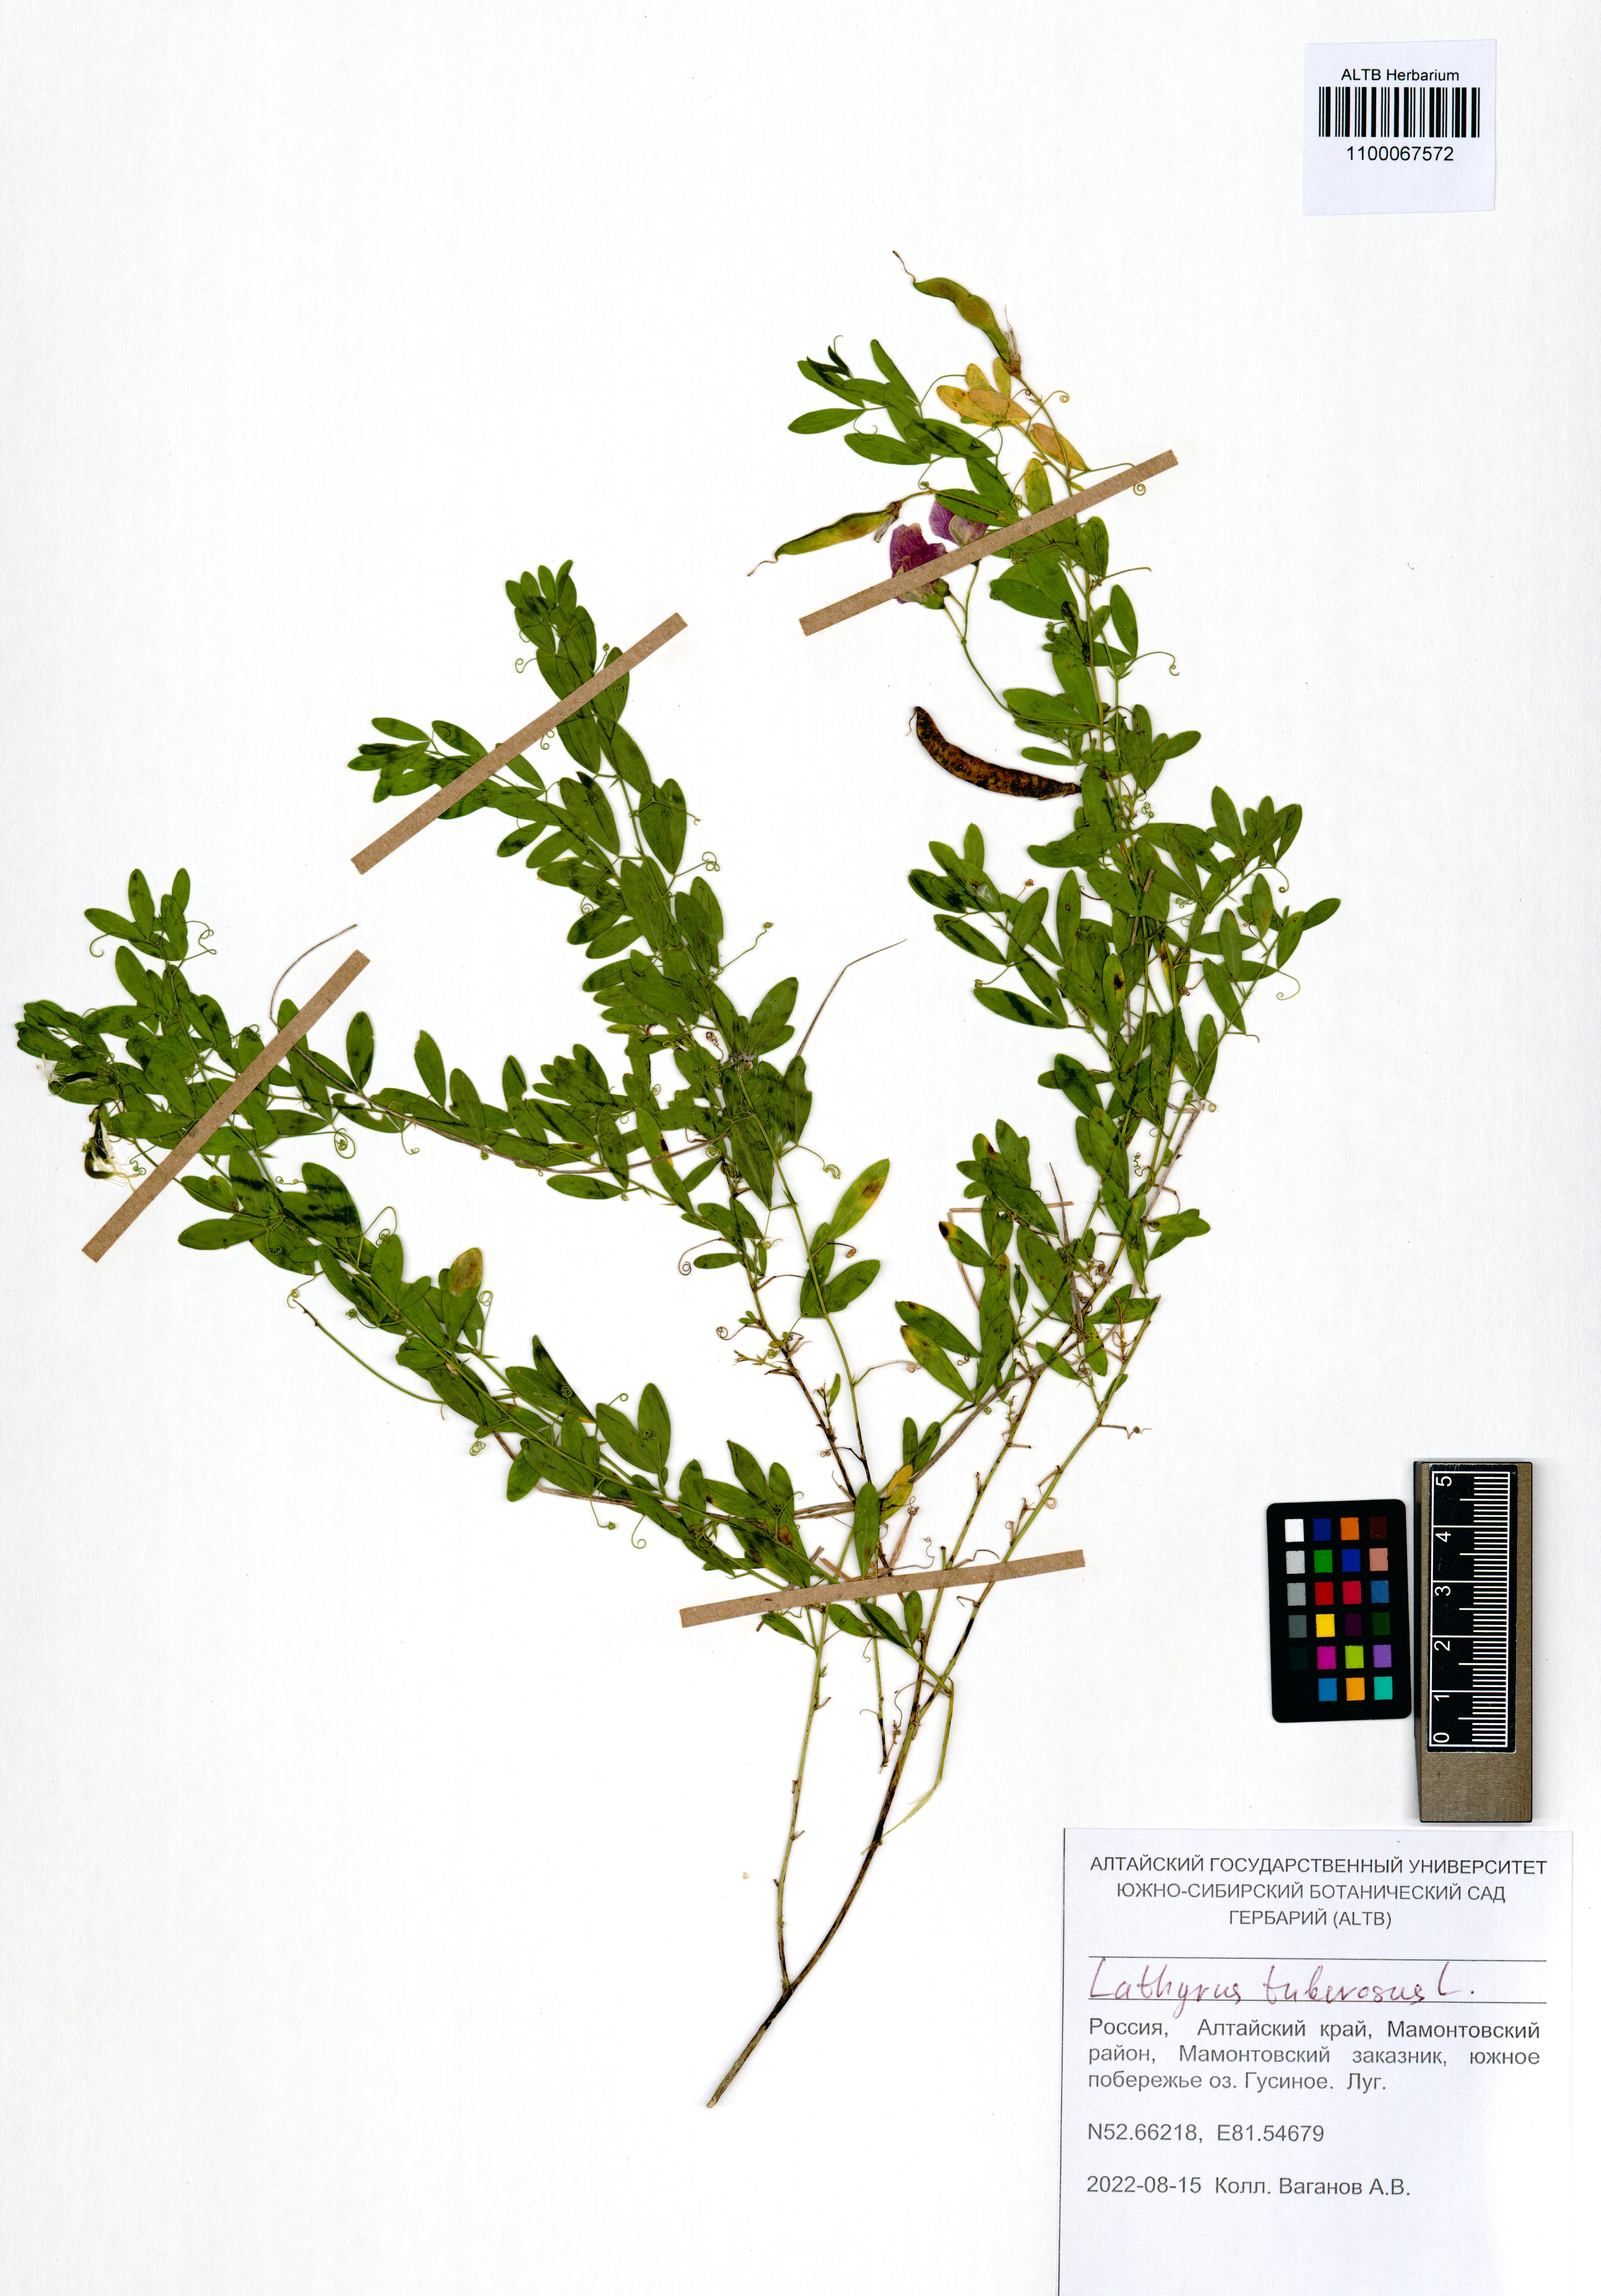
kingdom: Plantae
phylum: Tracheophyta
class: Magnoliopsida
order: Fabales
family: Fabaceae
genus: Lathyrus
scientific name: Lathyrus tuberosus
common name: Tuberous pea
